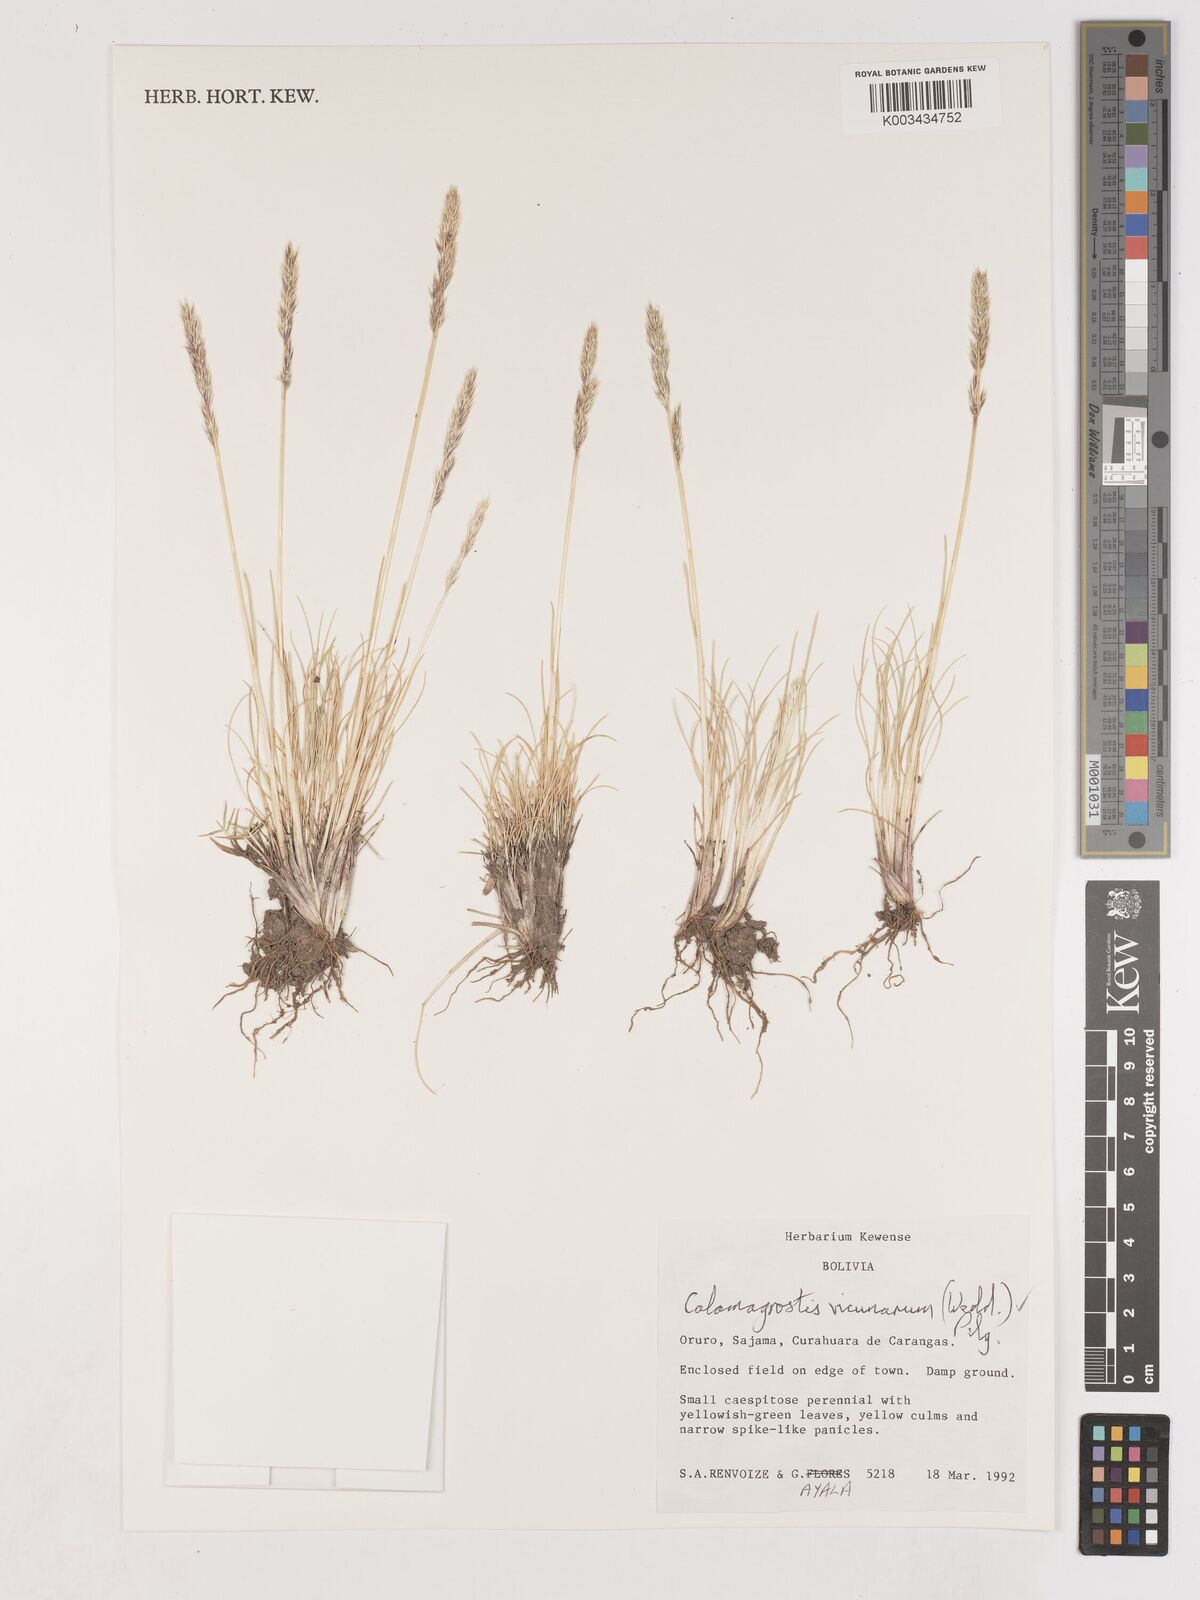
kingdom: Plantae
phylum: Tracheophyta
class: Liliopsida
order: Poales
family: Poaceae
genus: Cinnagrostis
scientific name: Cinnagrostis vicunarum
